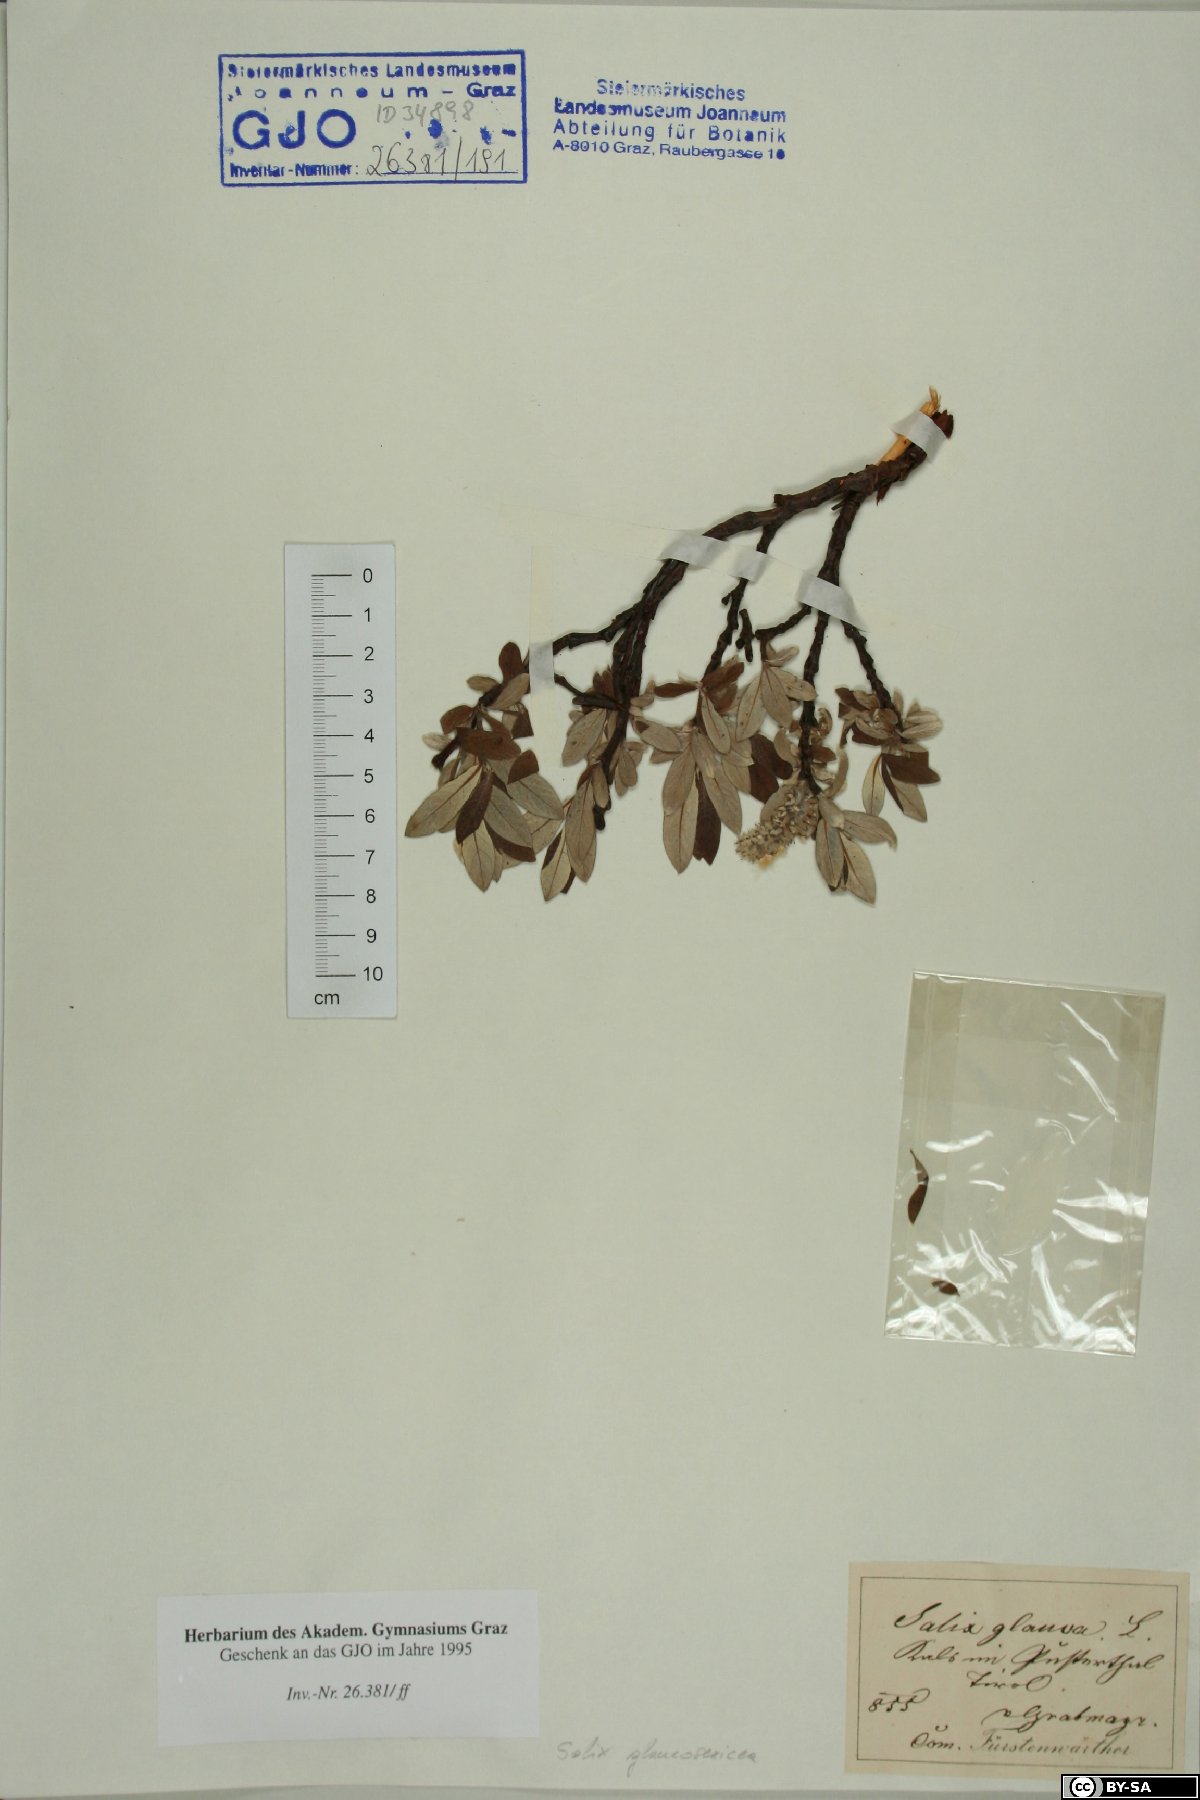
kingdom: Plantae
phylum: Tracheophyta
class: Magnoliopsida
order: Malpighiales
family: Salicaceae
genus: Salix
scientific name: Salix glaucosericea
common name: Alpine gray willow
